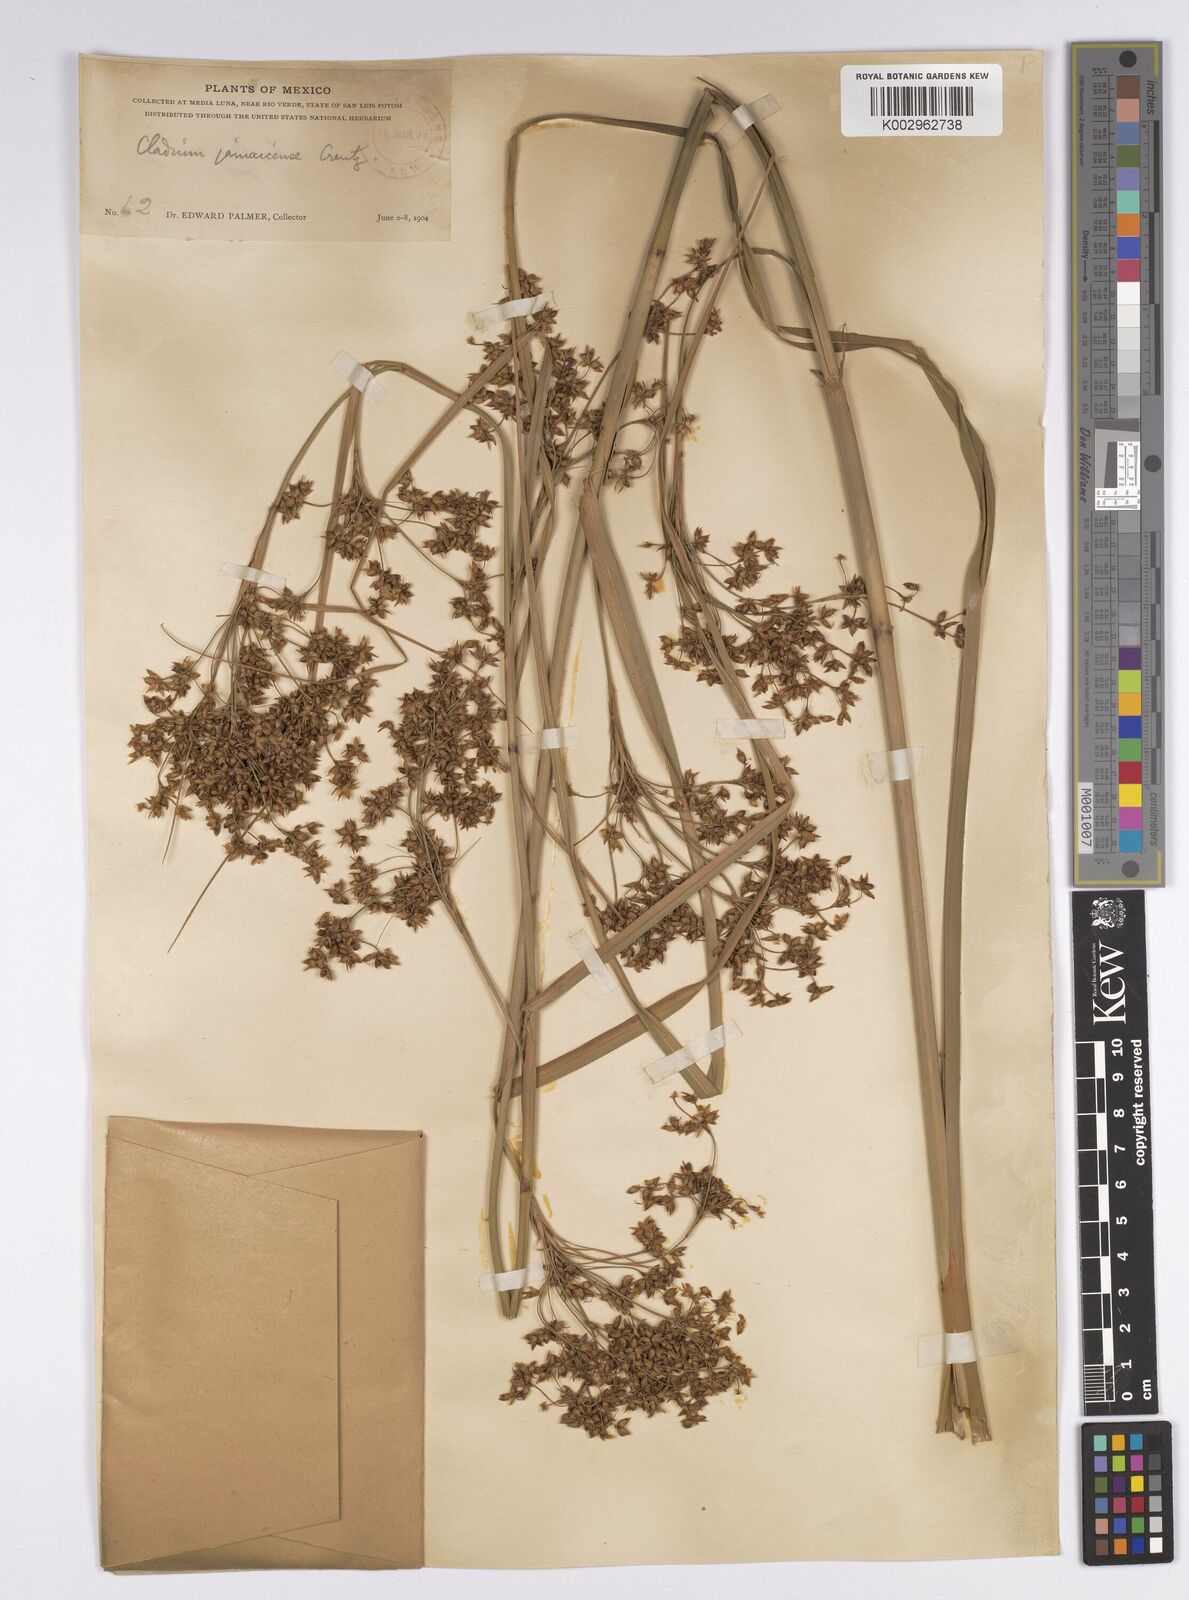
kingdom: Plantae
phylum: Tracheophyta
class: Liliopsida
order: Poales
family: Cyperaceae
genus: Cladium
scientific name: Cladium mariscus
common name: Great fen-sedge
